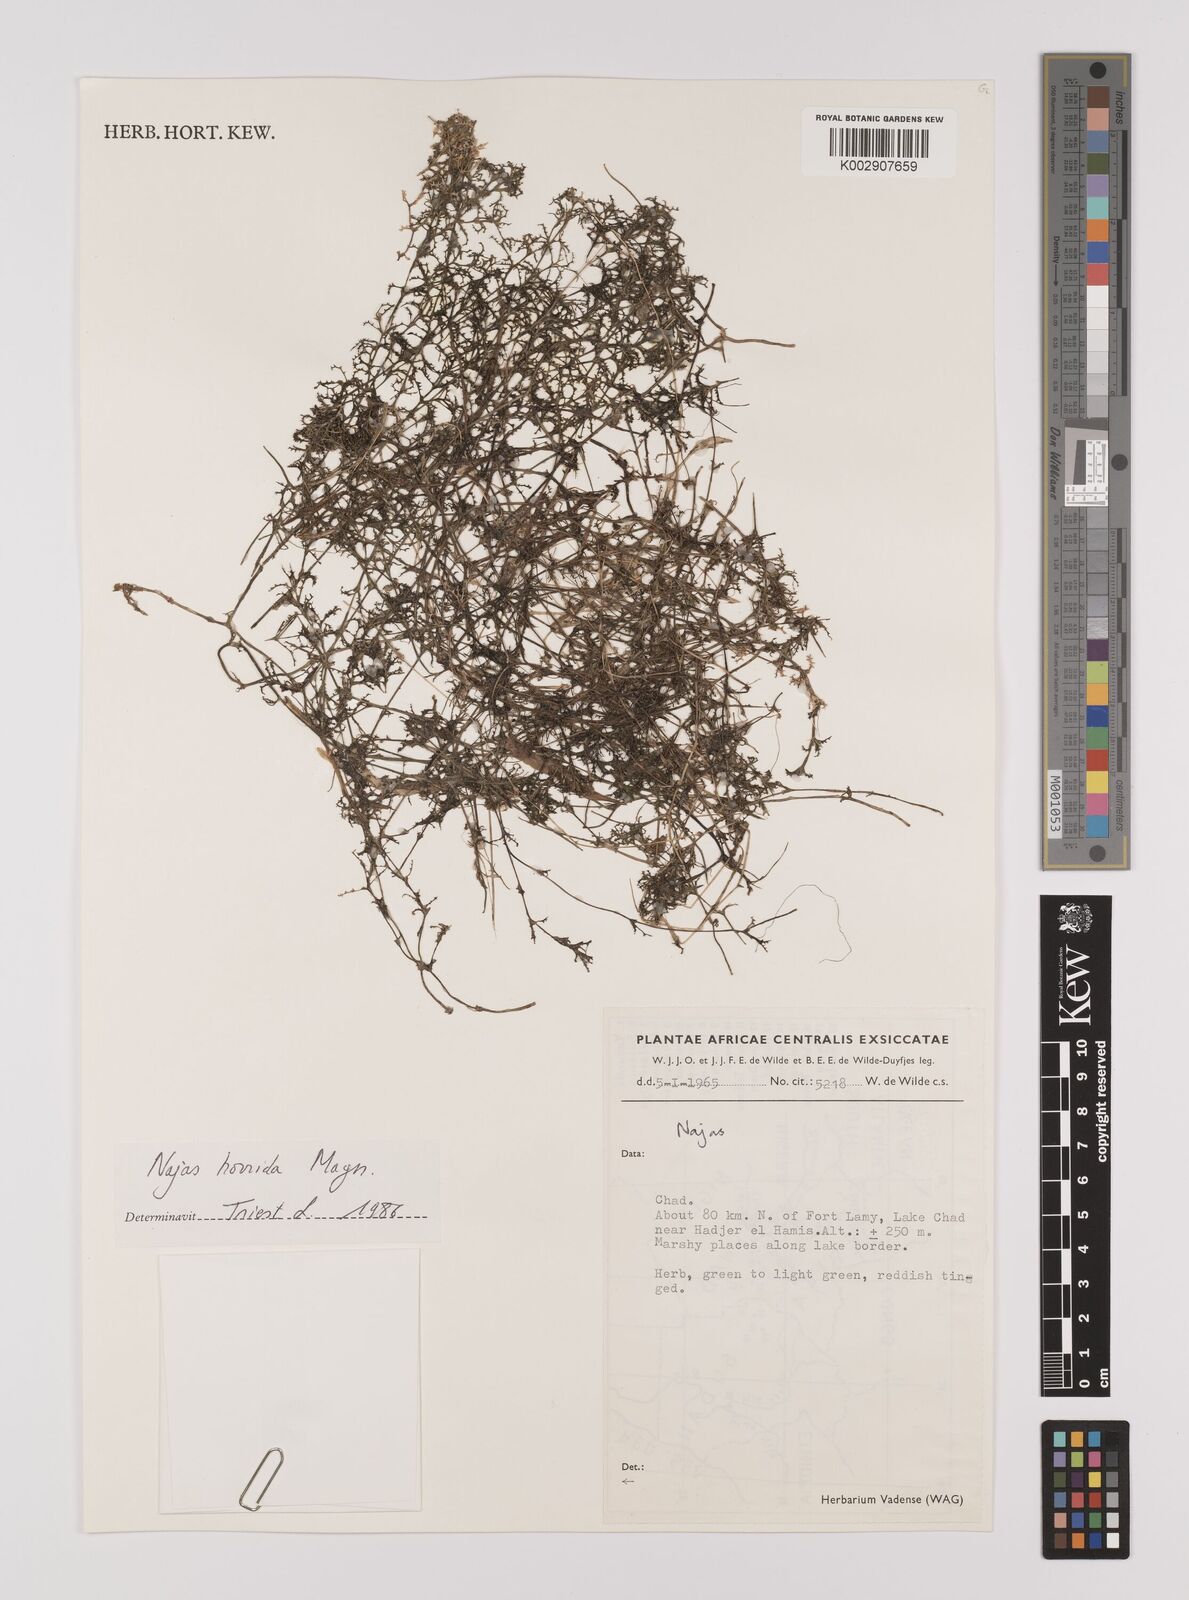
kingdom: Plantae
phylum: Tracheophyta
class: Liliopsida
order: Alismatales
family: Hydrocharitaceae
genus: Najas
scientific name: Najas pectinata
